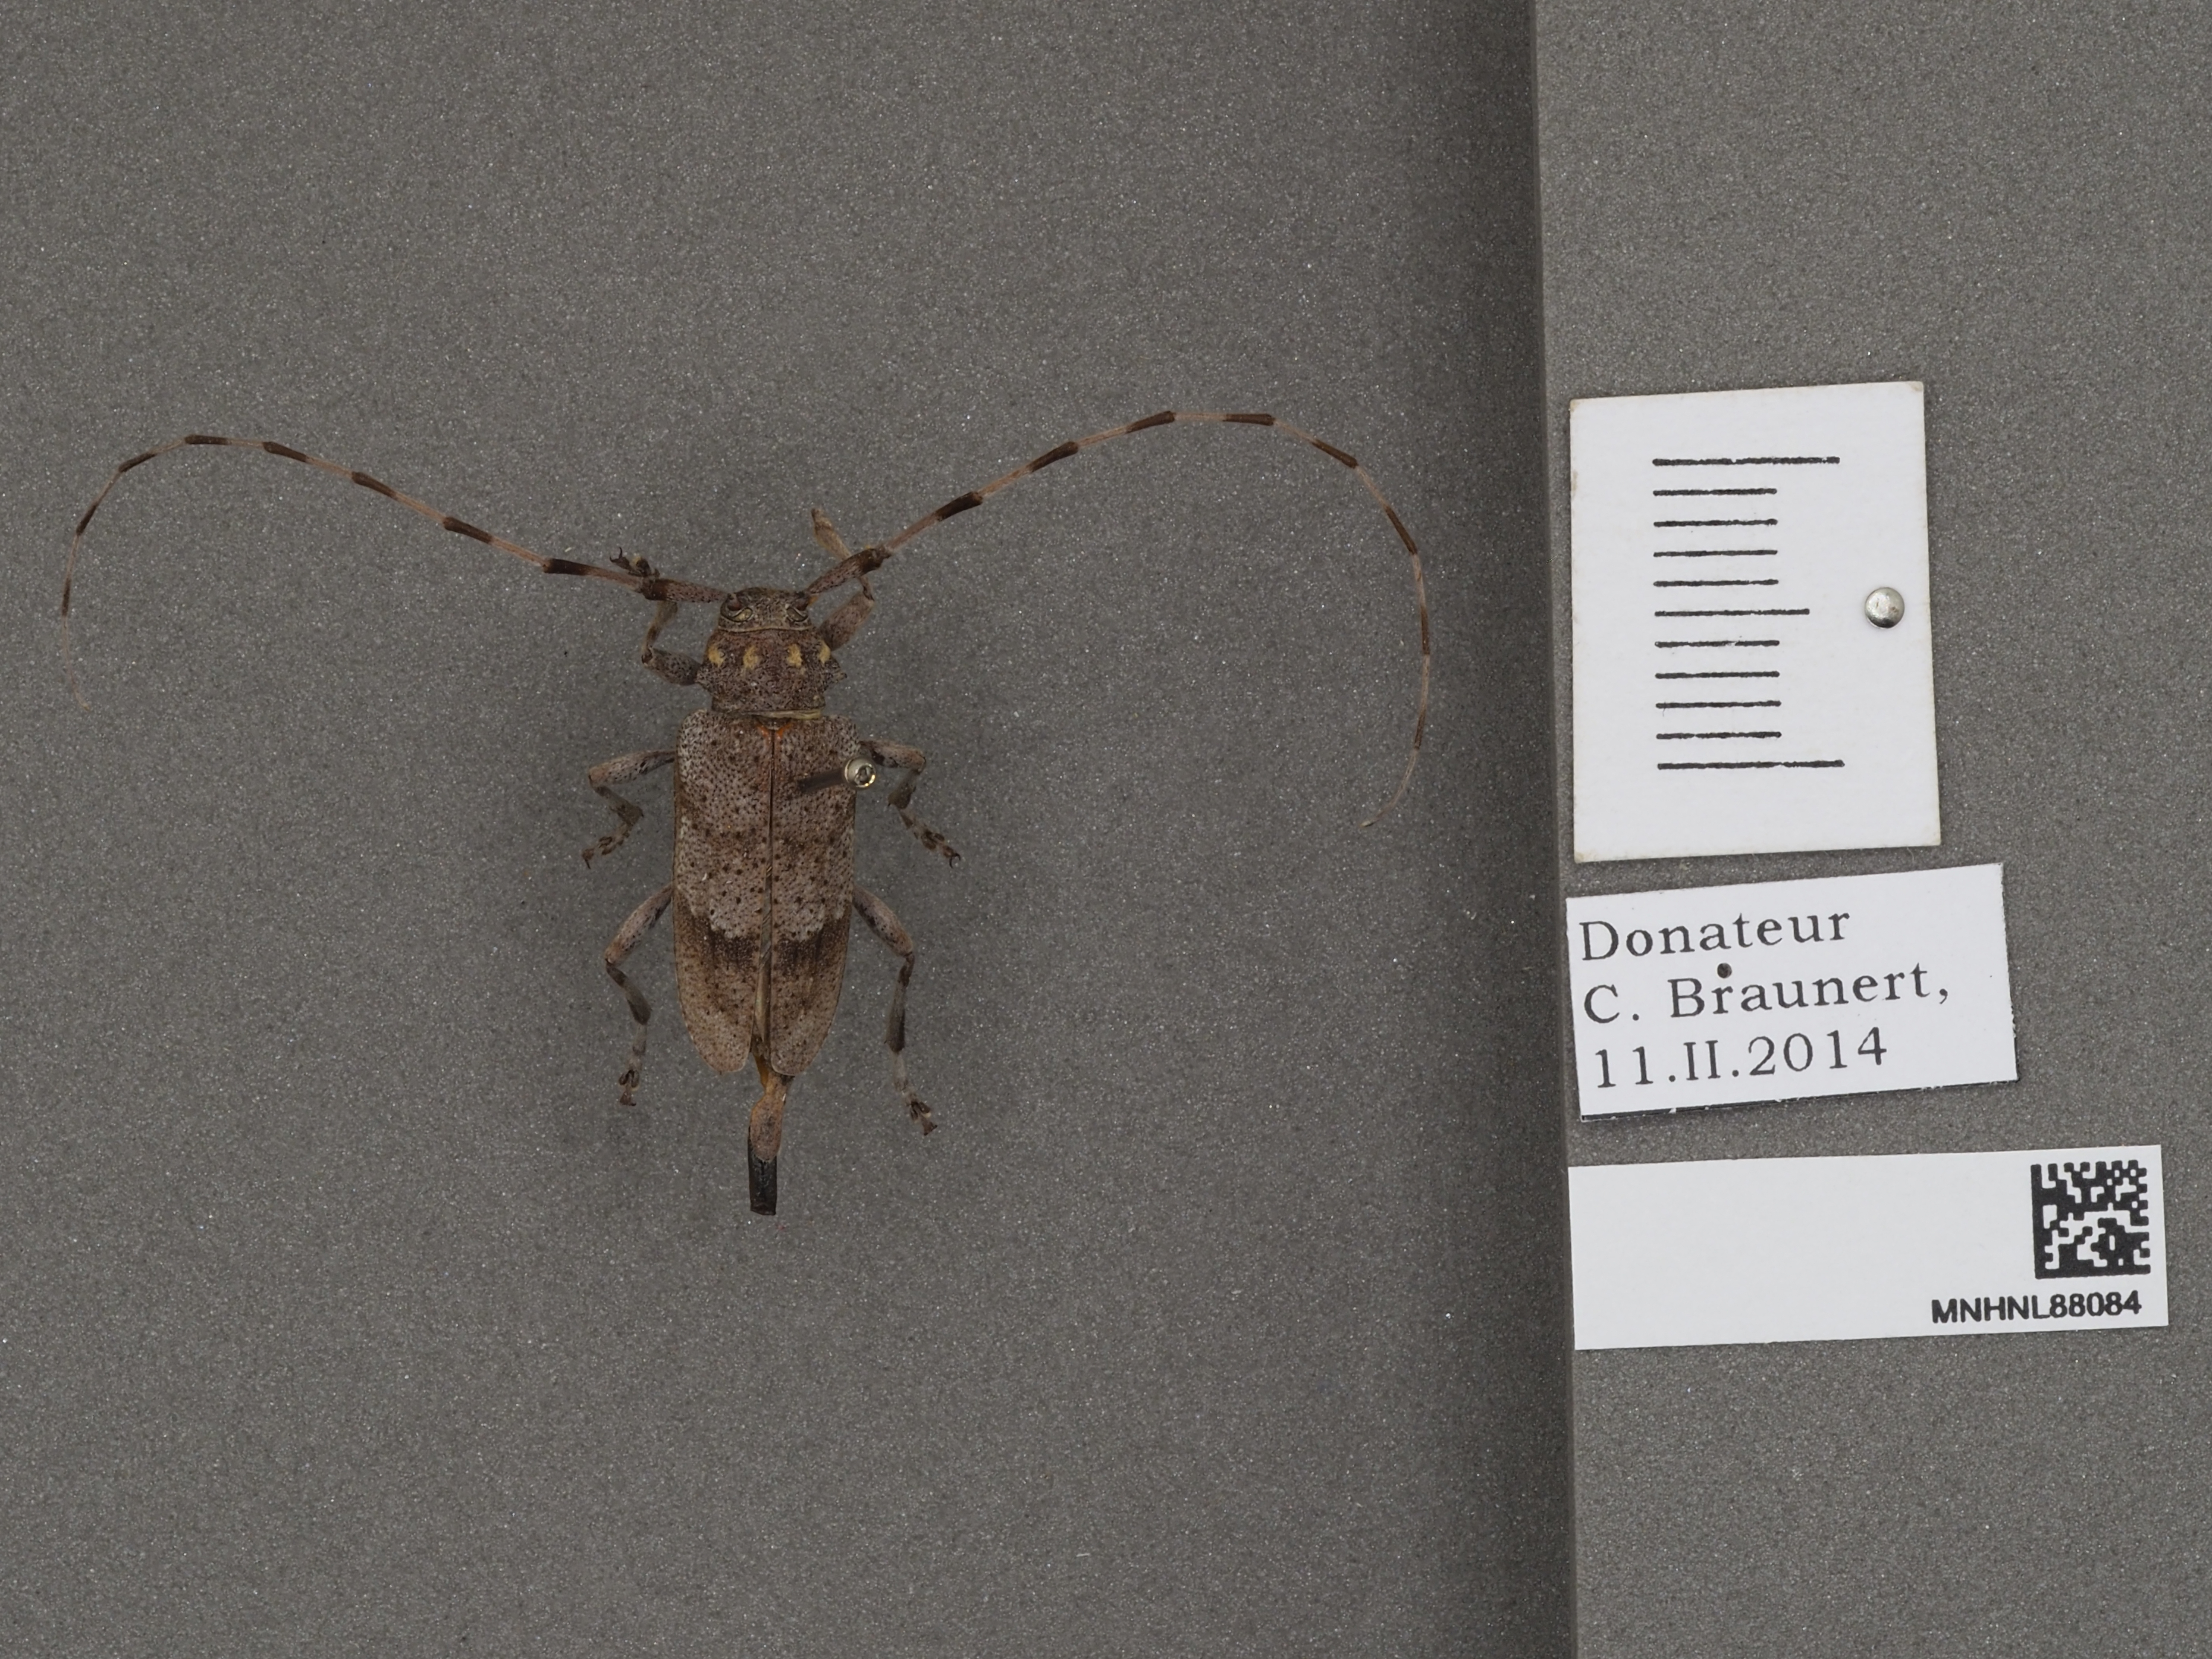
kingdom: Animalia
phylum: Arthropoda
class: Insecta
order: Coleoptera
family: Cerambycidae
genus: Acanthocinus
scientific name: Acanthocinus aedilis
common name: Timberman beetle
